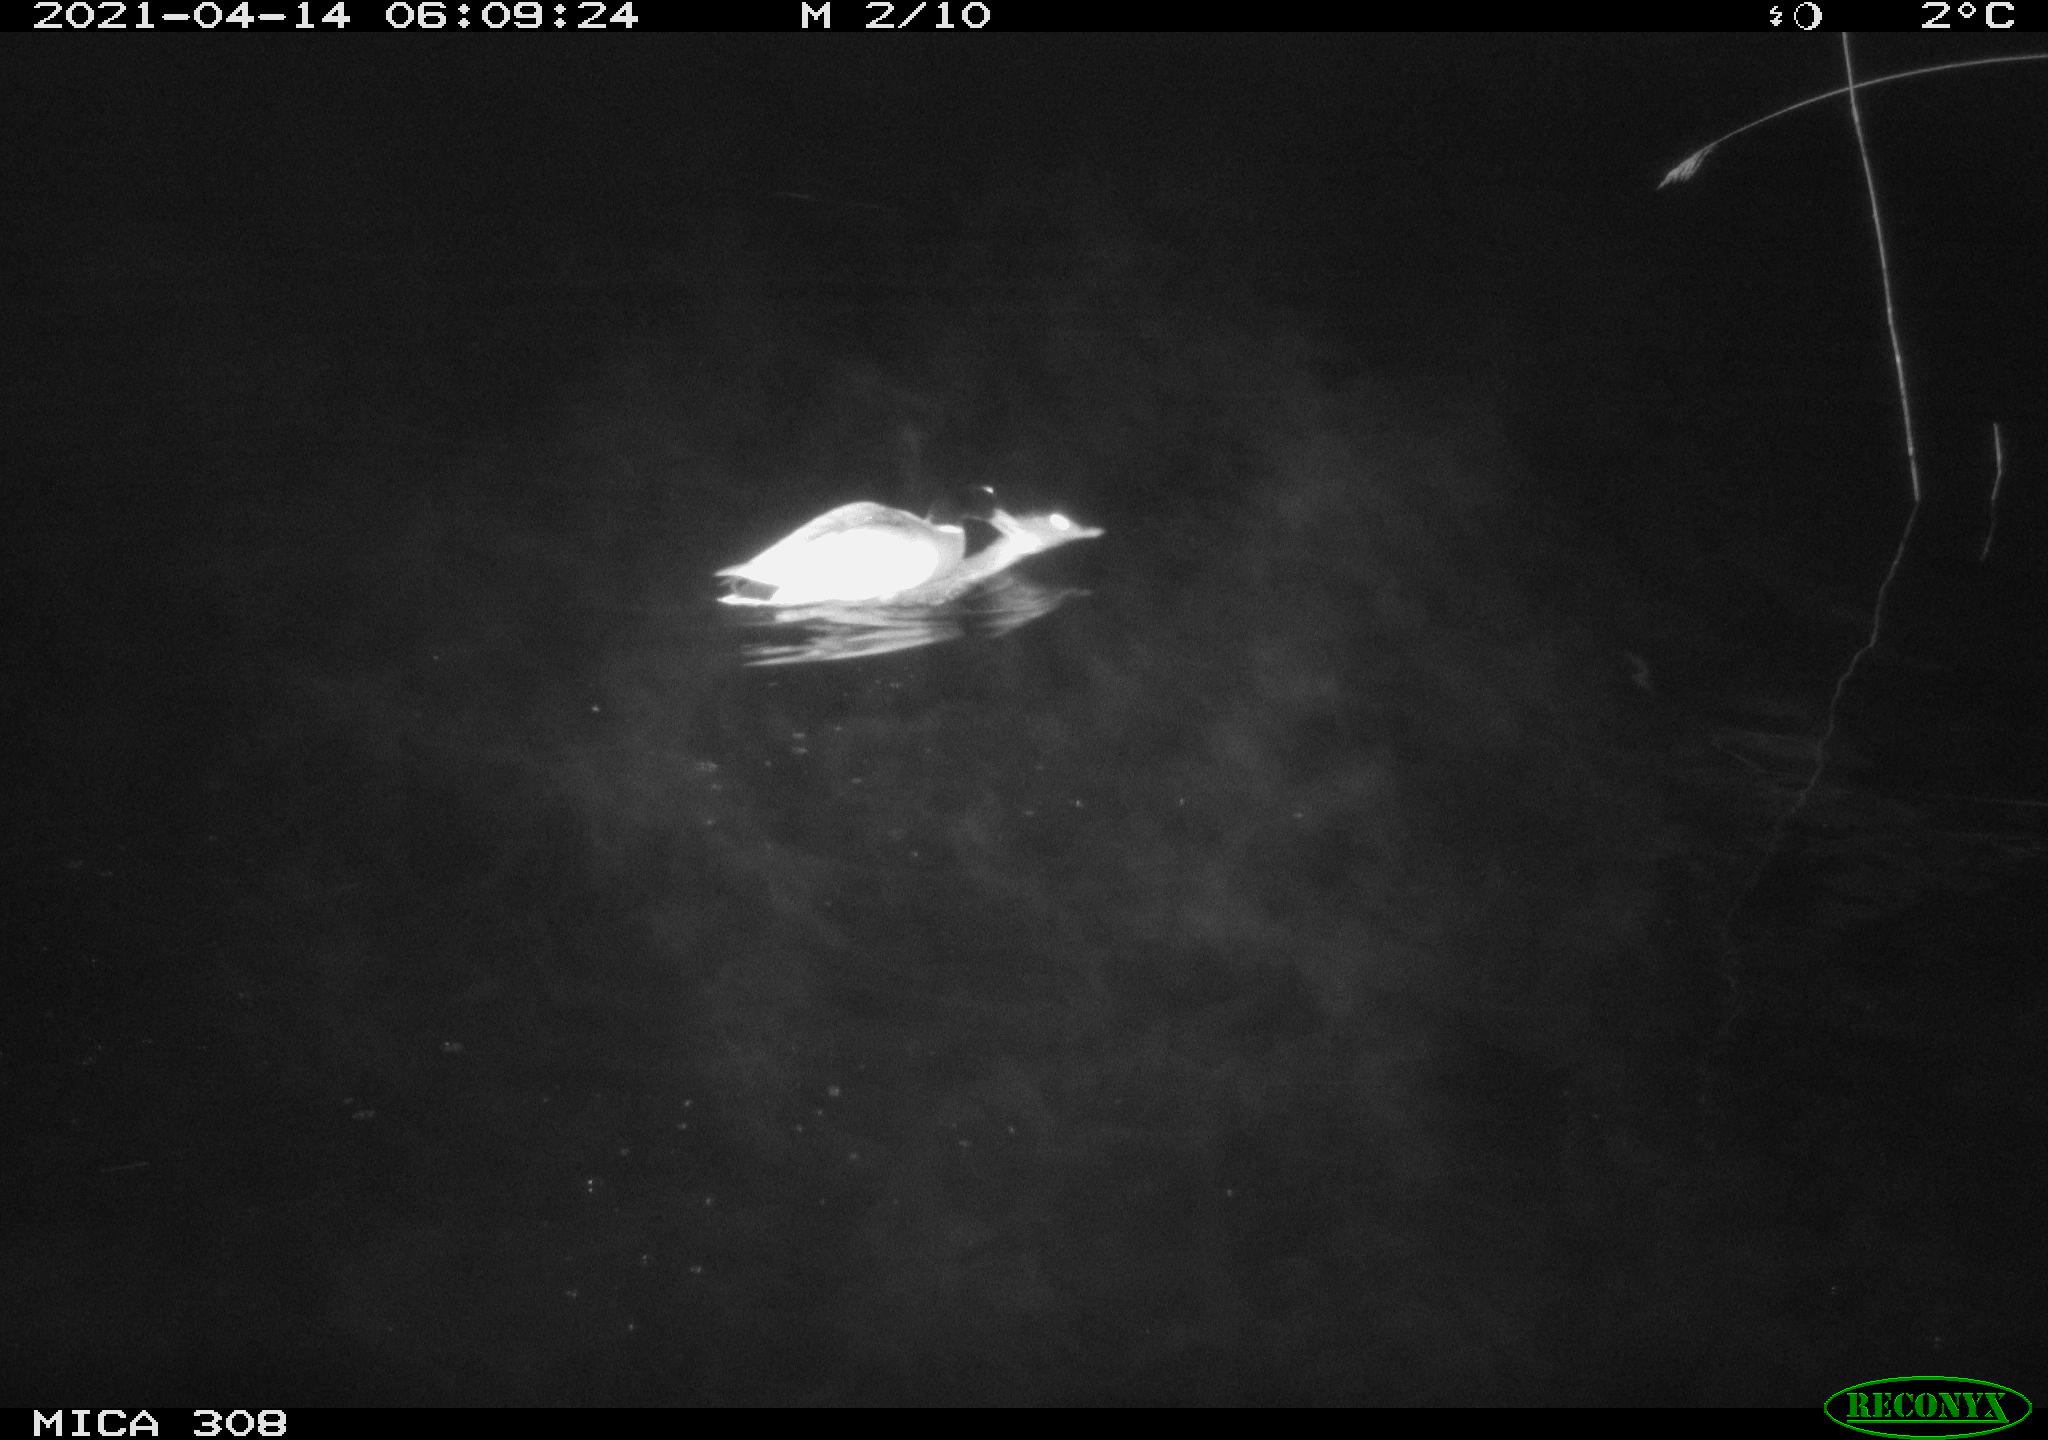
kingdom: Animalia
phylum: Chordata
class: Aves
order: Anseriformes
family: Anatidae
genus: Anas
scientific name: Anas platyrhynchos
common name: Mallard
